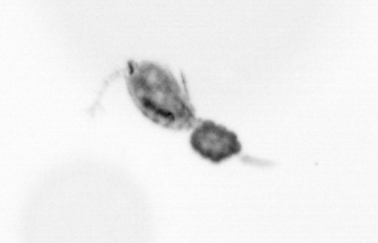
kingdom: Animalia
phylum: Arthropoda
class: Copepoda
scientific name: Copepoda
